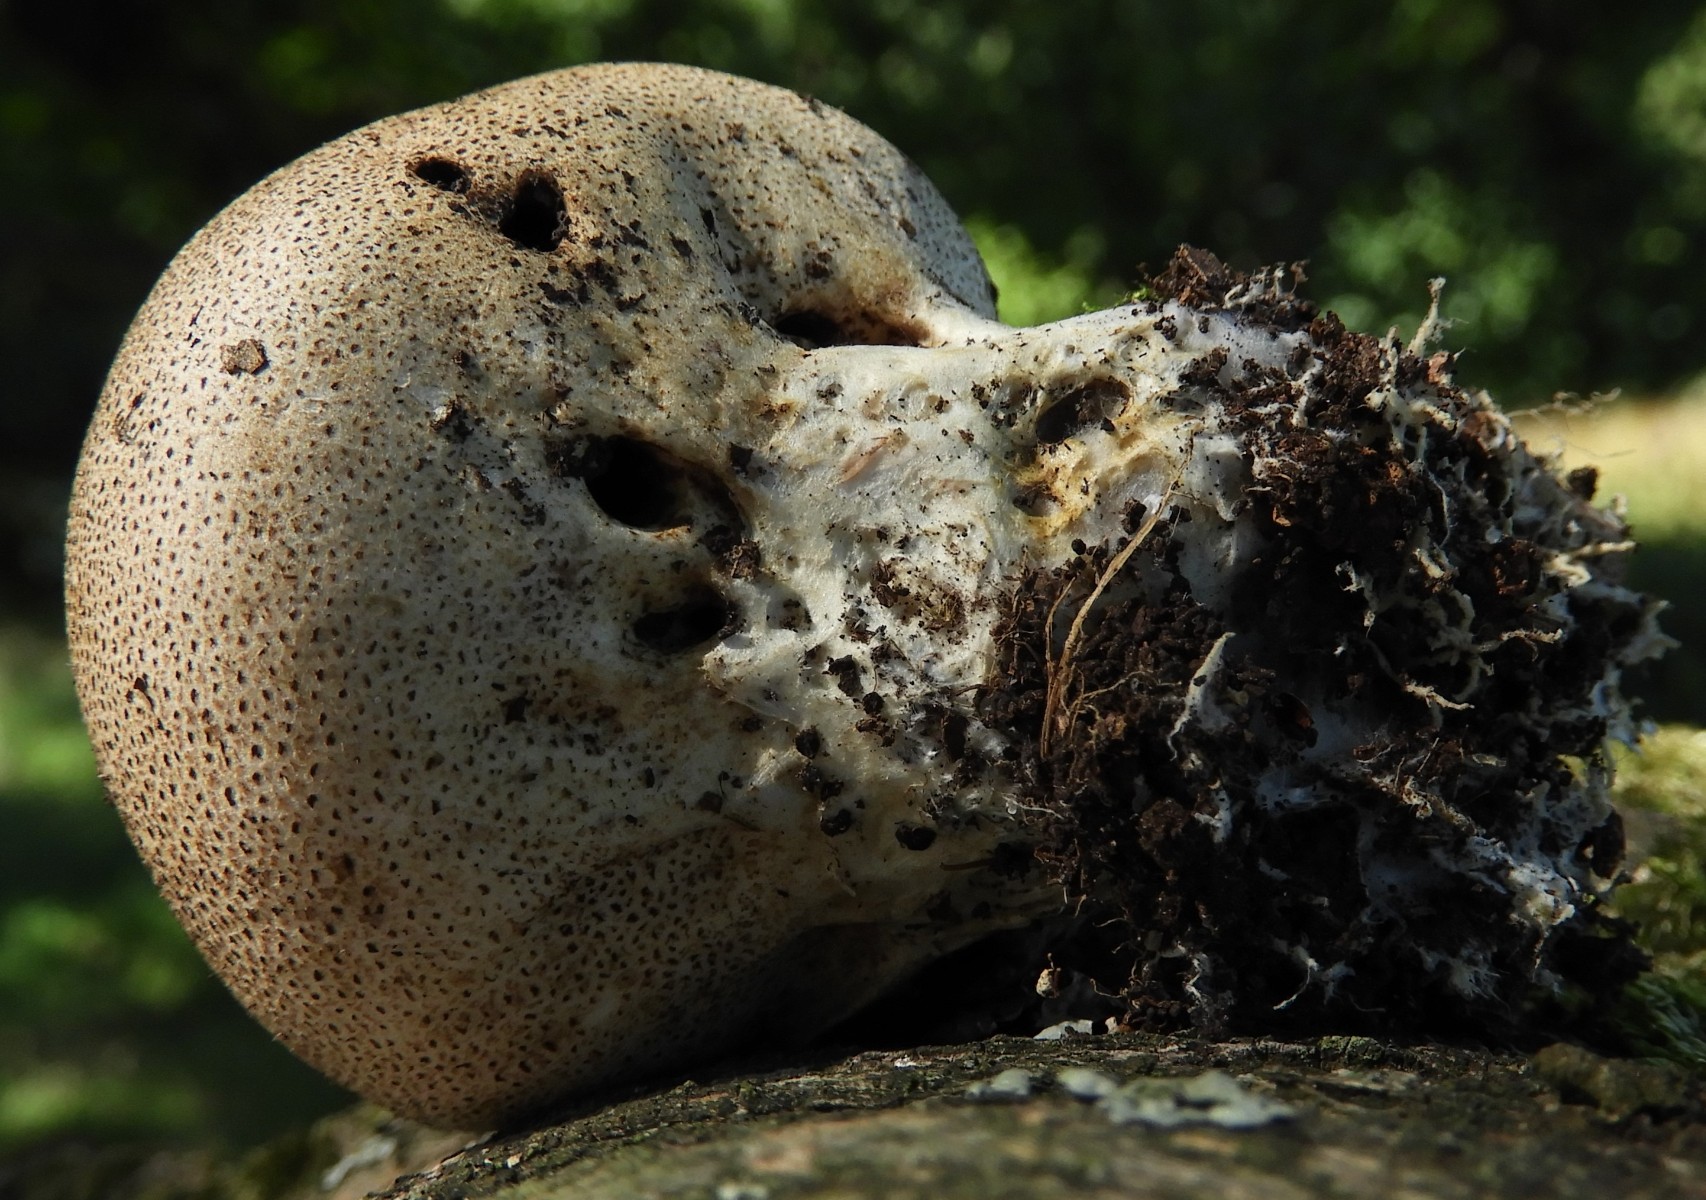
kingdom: Fungi
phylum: Basidiomycota
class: Agaricomycetes
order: Boletales
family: Sclerodermataceae
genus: Scleroderma
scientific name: Scleroderma areolatum
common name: plettet bruskbold
